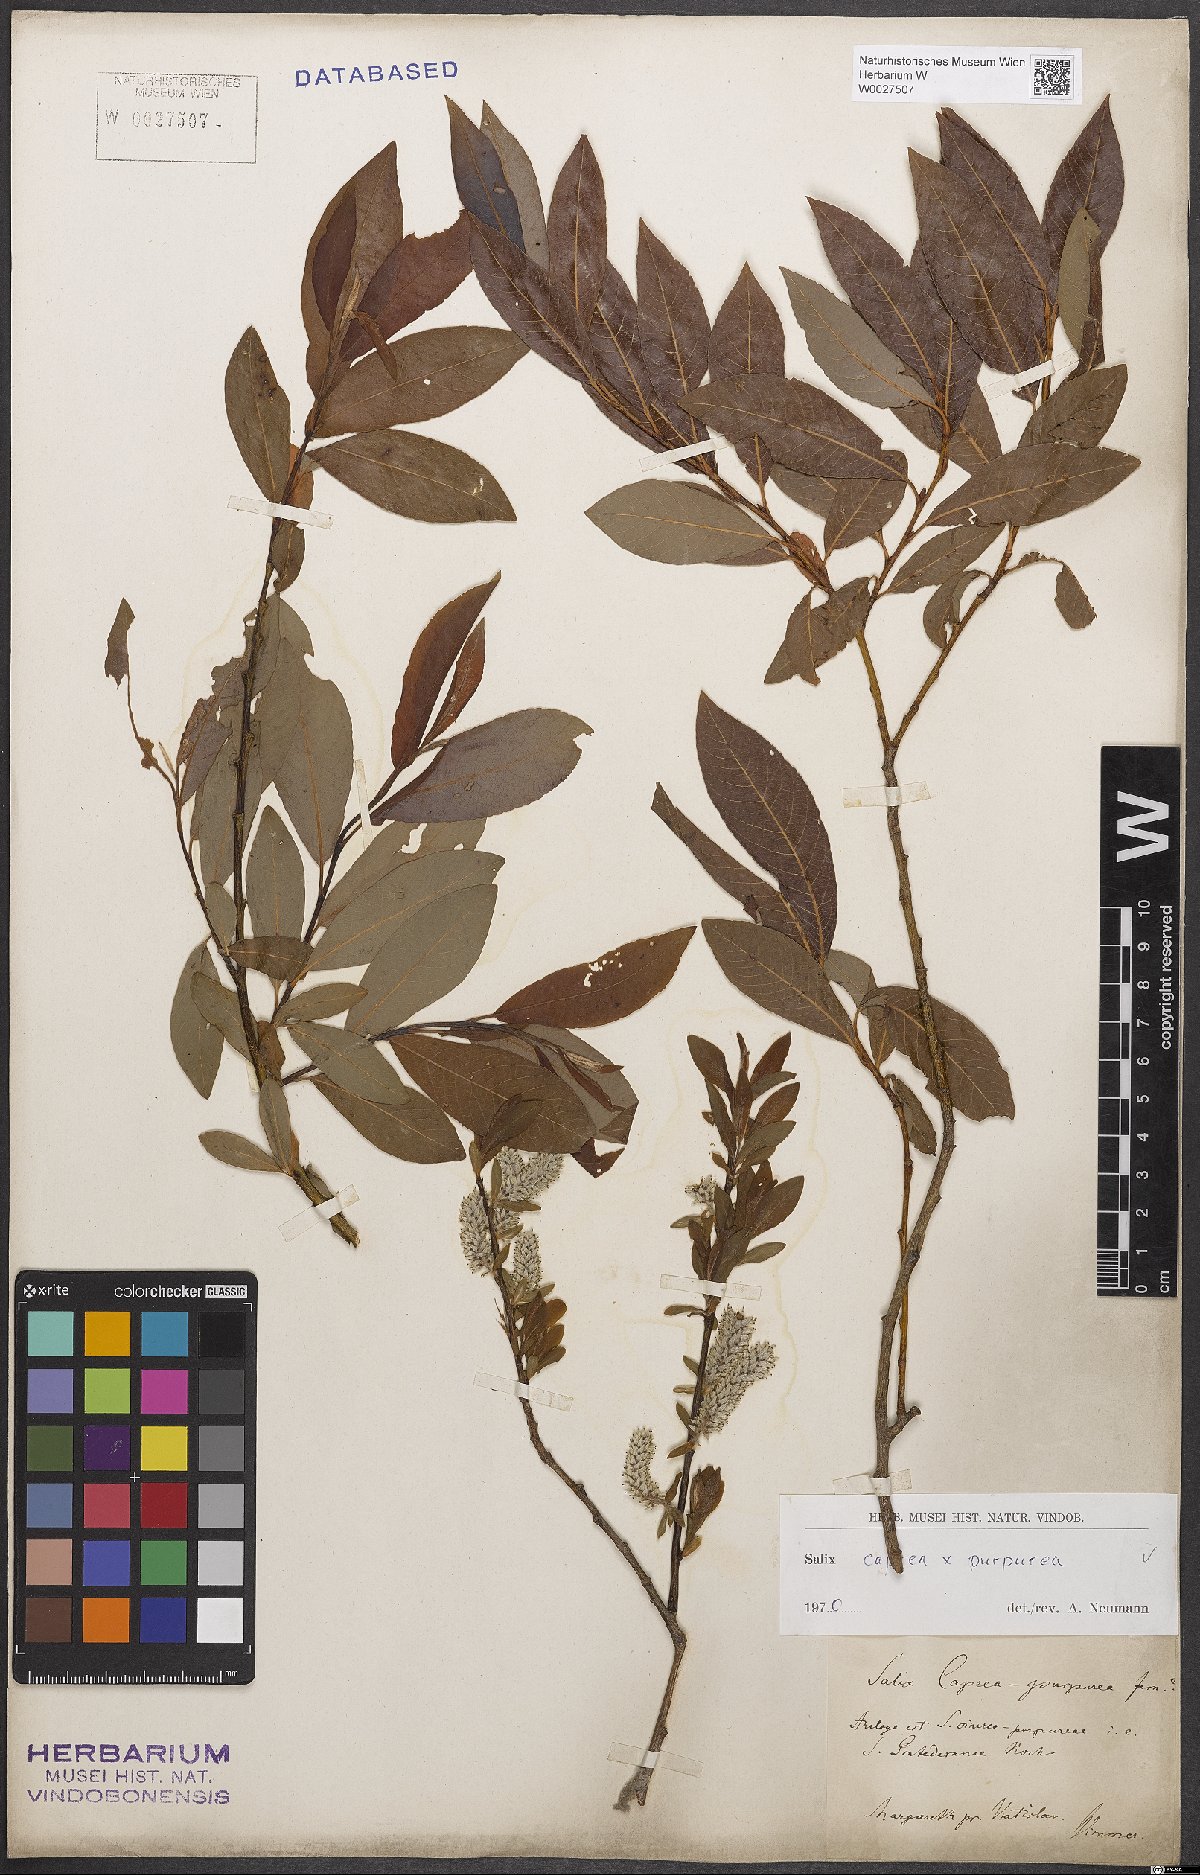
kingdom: Plantae
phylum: Tracheophyta
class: Magnoliopsida
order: Malpighiales
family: Salicaceae
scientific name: Salicaceae
